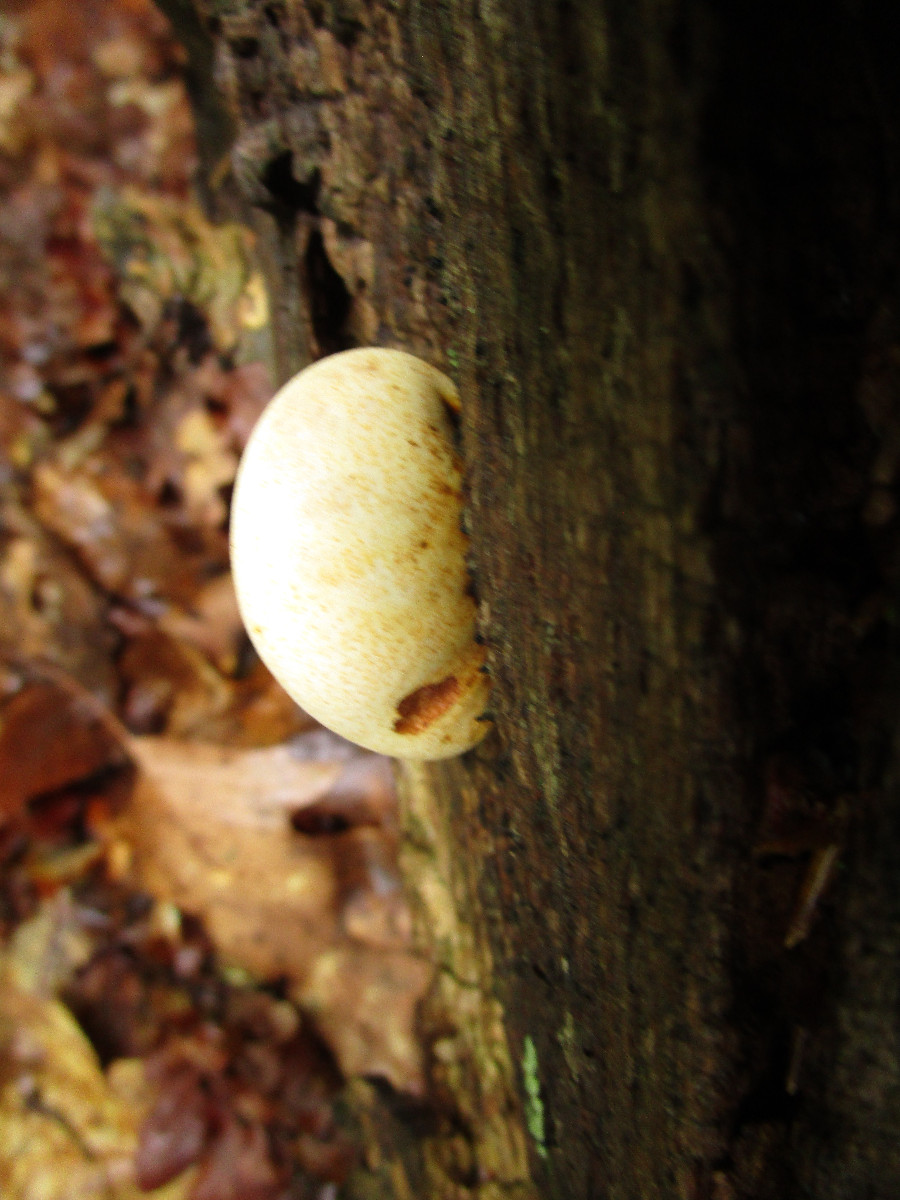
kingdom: Fungi
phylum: Basidiomycota
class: Agaricomycetes
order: Polyporales
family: Fomitopsidaceae
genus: Buglossoporus
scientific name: Buglossoporus quercinus
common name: egetunge
